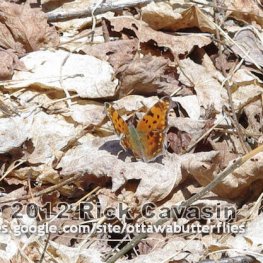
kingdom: Animalia
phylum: Arthropoda
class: Insecta
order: Lepidoptera
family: Nymphalidae
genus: Polygonia
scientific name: Polygonia comma
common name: Eastern Comma
